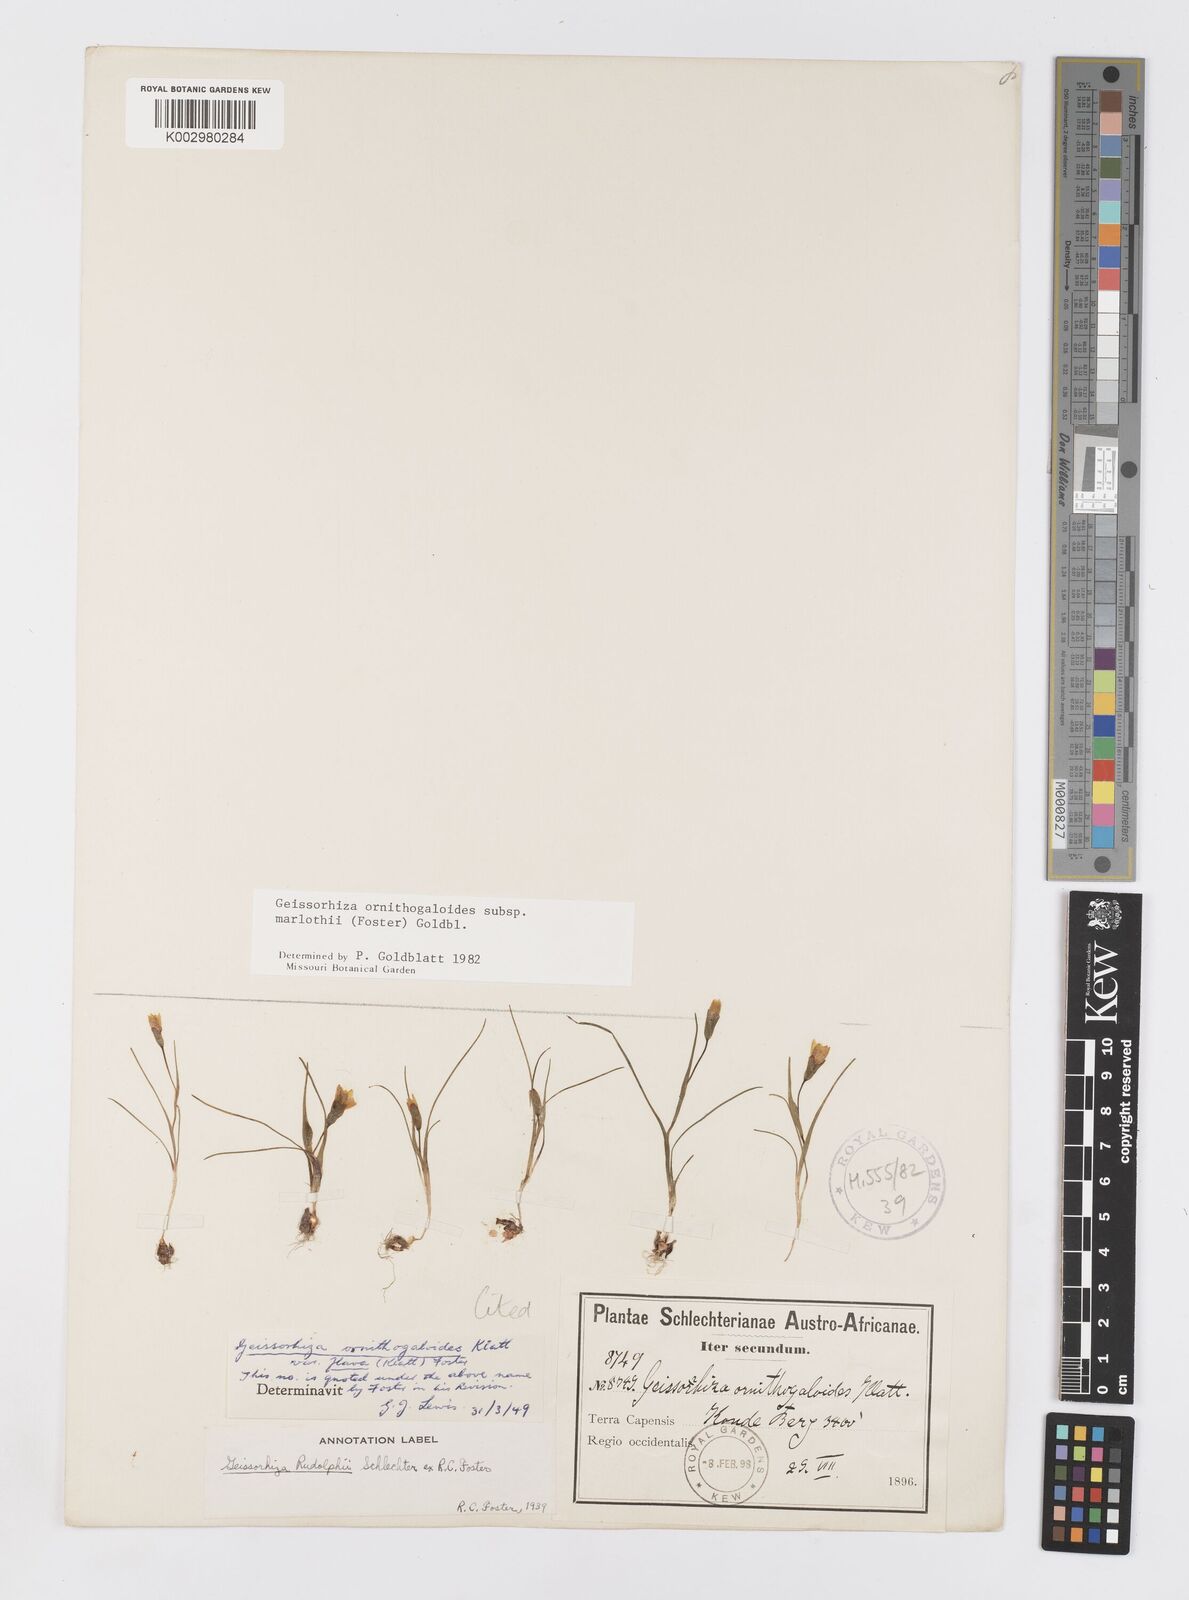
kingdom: Plantae
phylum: Tracheophyta
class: Liliopsida
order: Asparagales
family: Iridaceae
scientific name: Iridaceae
